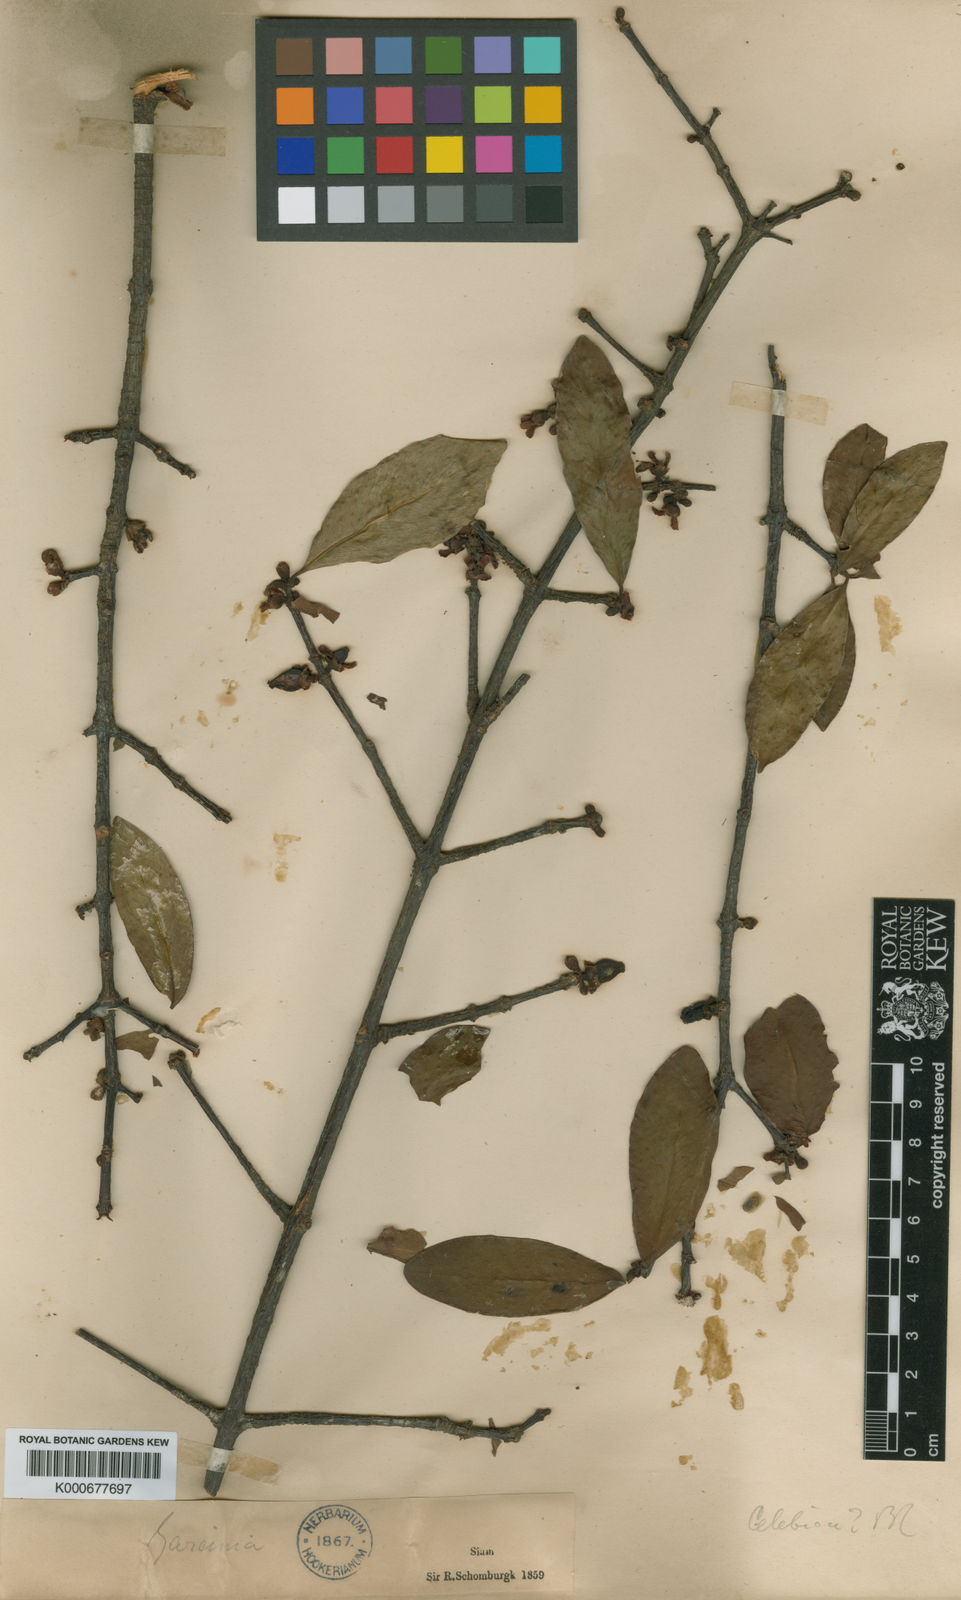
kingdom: Plantae
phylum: Tracheophyta
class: Magnoliopsida
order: Malpighiales
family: Clusiaceae
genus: Garcinia
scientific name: Garcinia schomburgkiana
